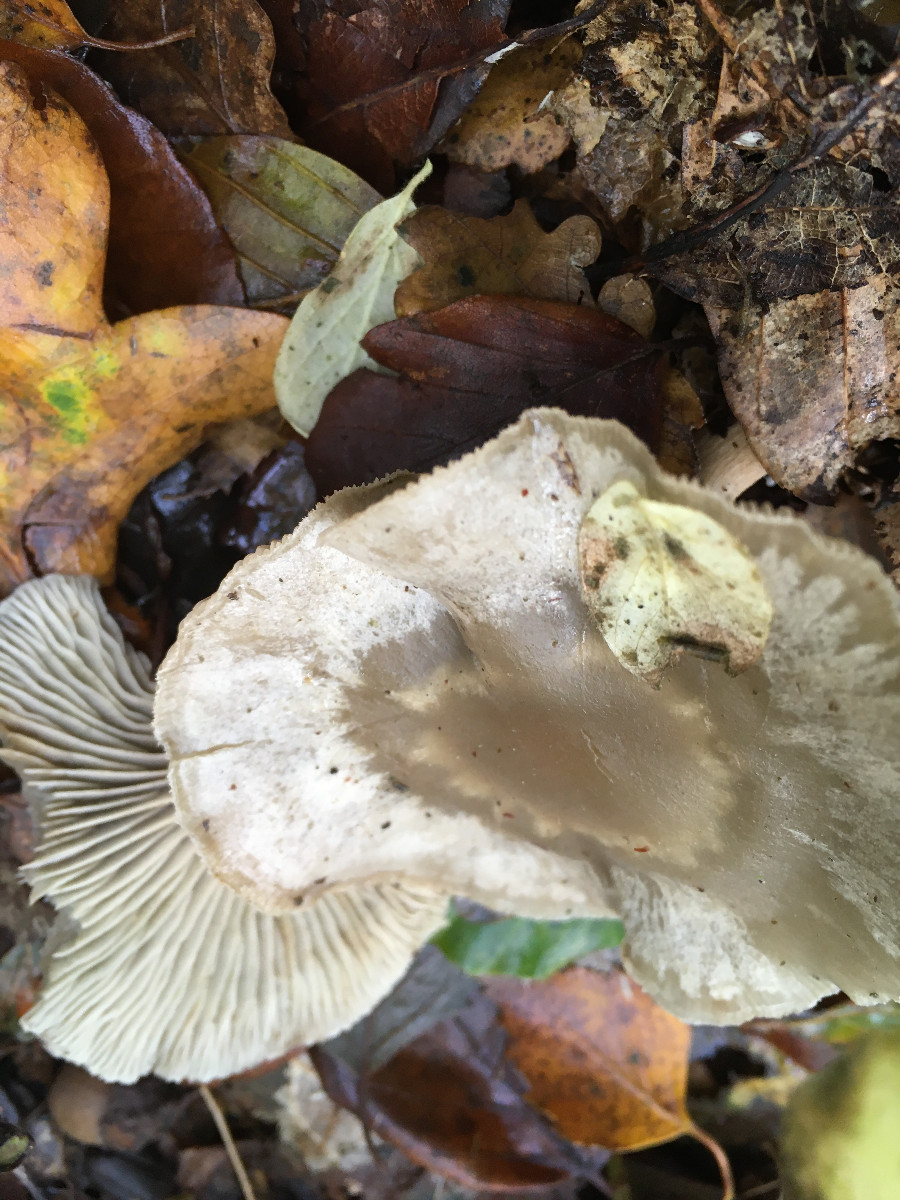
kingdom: Fungi
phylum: Basidiomycota
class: Agaricomycetes
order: Agaricales
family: Tricholomataceae
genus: Clitocybe
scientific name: Clitocybe odora
